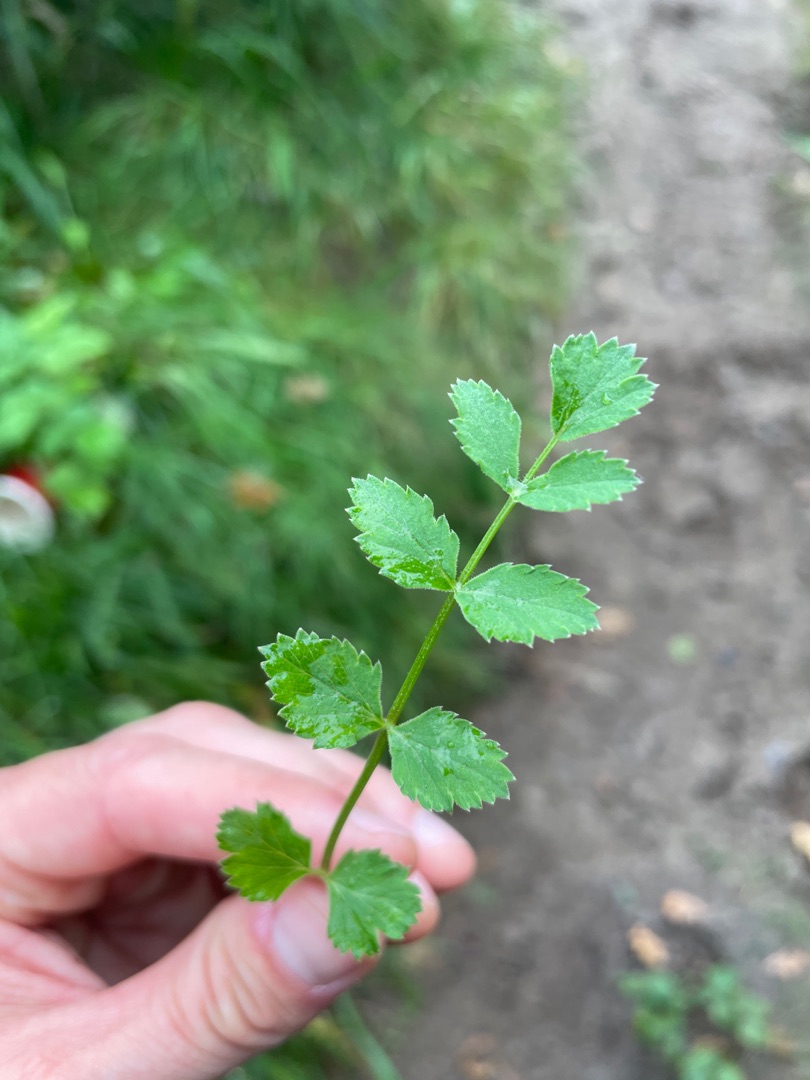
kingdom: Plantae
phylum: Tracheophyta
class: Magnoliopsida
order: Apiales
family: Apiaceae
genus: Pimpinella
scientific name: Pimpinella saxifraga
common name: Almindelig pimpinelle
